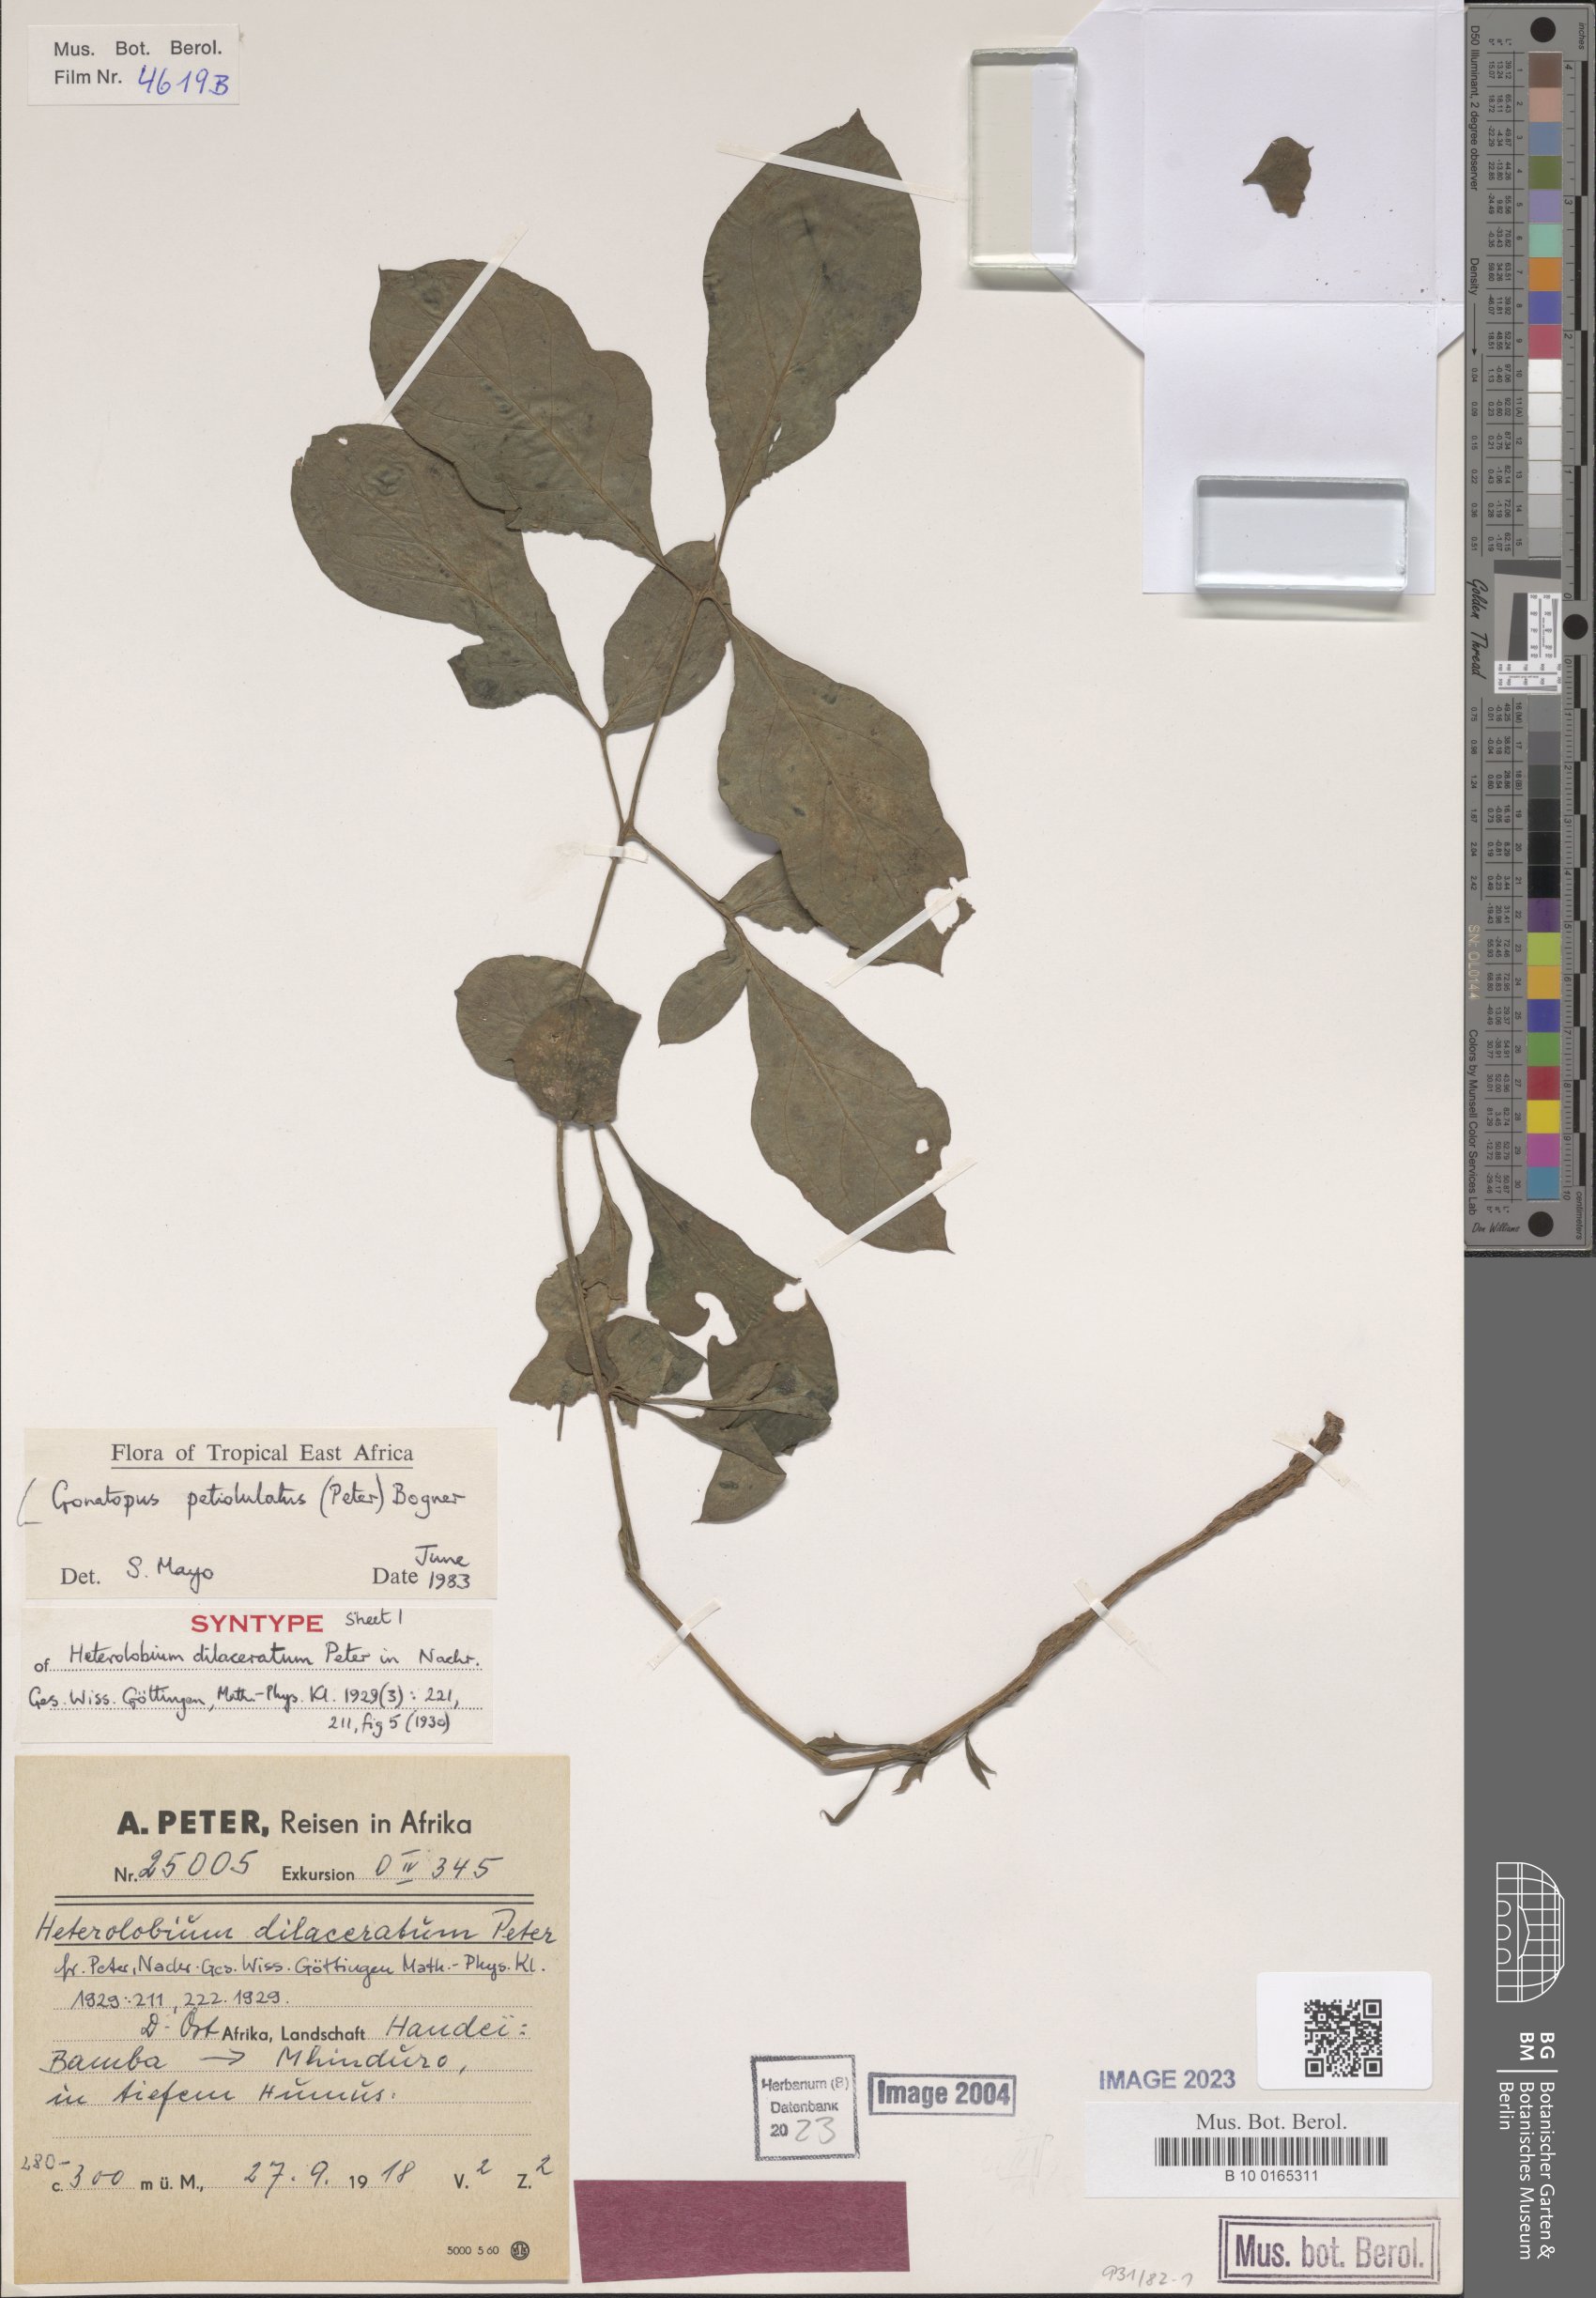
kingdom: Plantae
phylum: Tracheophyta
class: Liliopsida
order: Alismatales
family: Araceae
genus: Gonatopus
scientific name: Gonatopus petiolulatus
